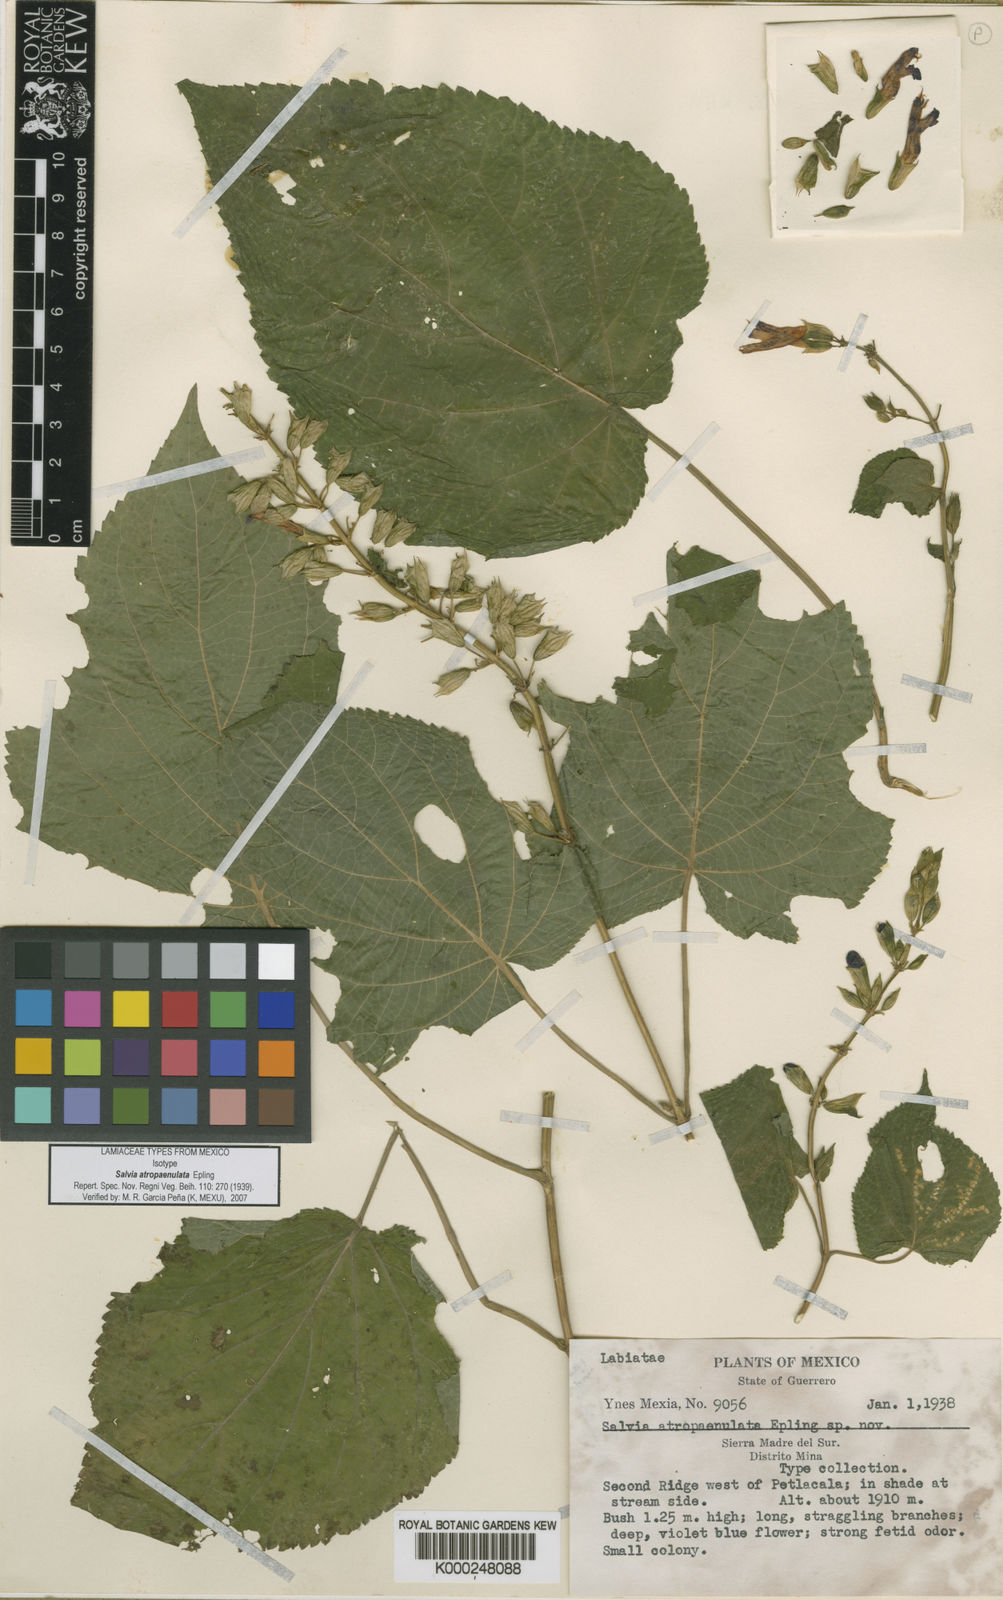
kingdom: Plantae
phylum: Tracheophyta
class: Magnoliopsida
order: Lamiales
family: Lamiaceae
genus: Salvia
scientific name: Salvia atropaenulata
